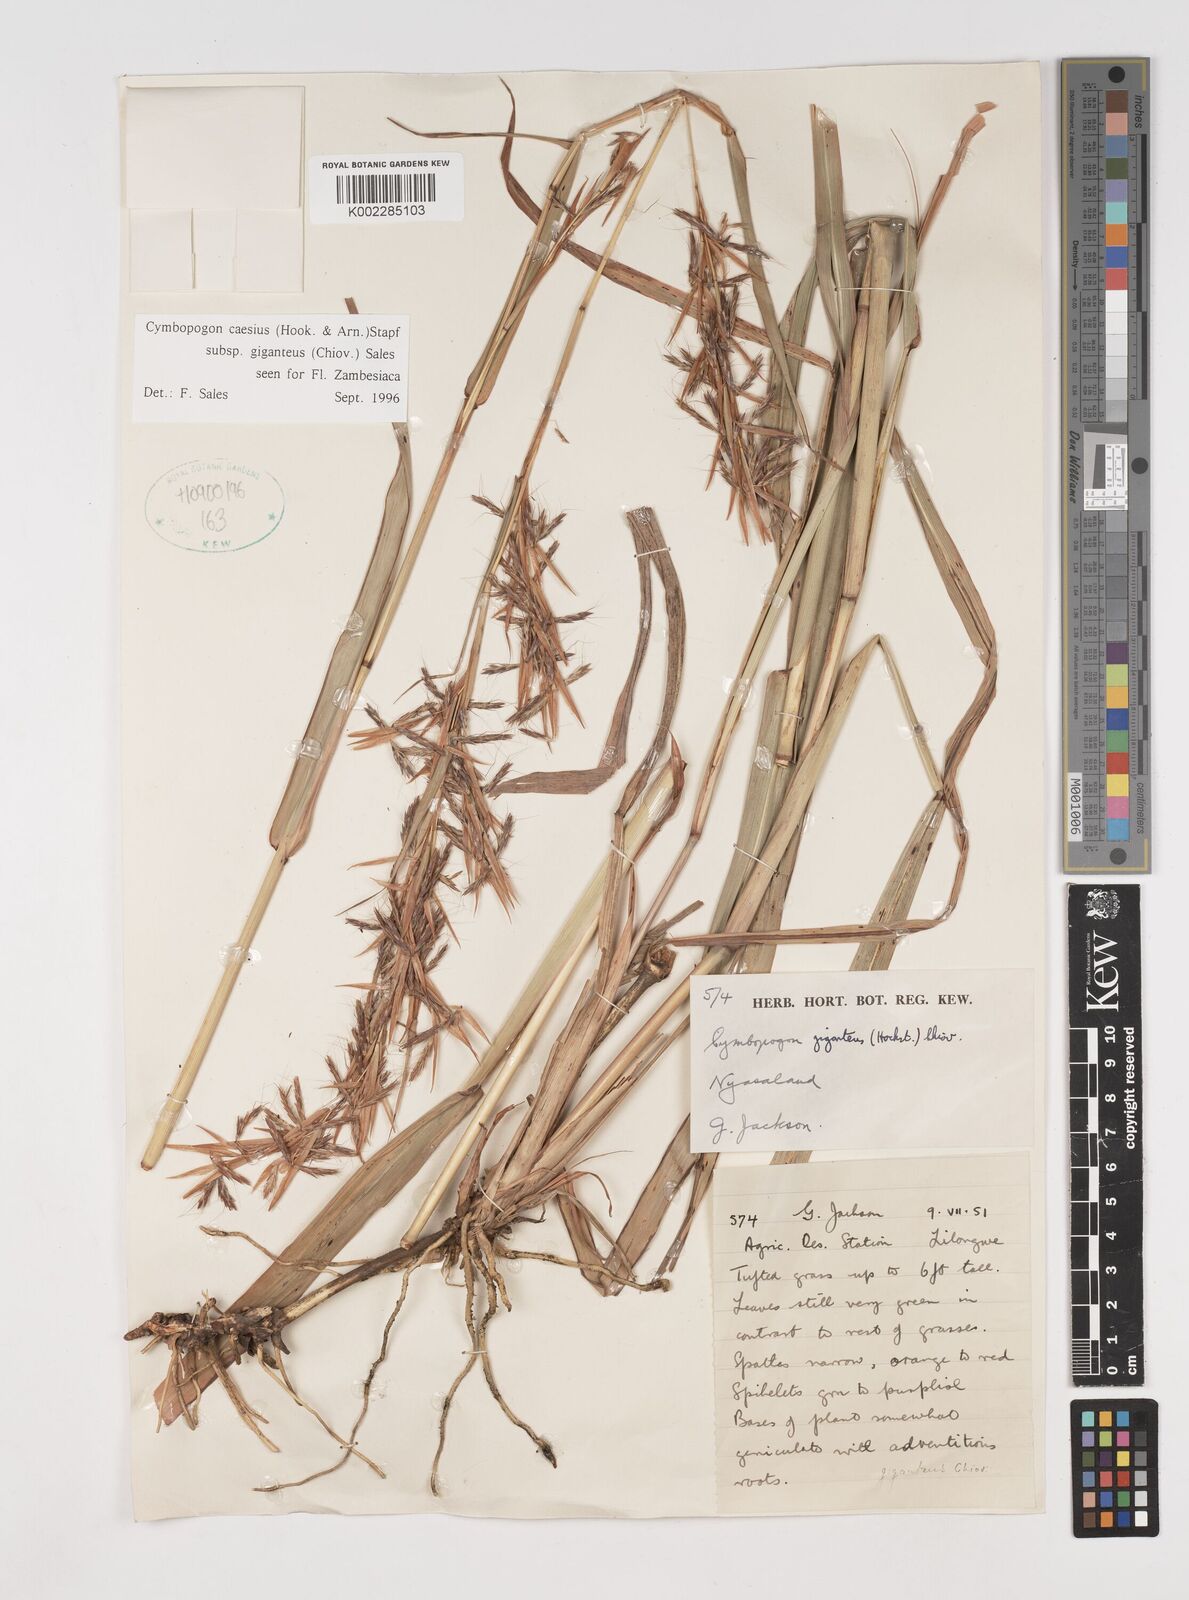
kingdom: Plantae
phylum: Tracheophyta
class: Liliopsida
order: Poales
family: Poaceae
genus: Cymbopogon
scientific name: Cymbopogon giganteus
